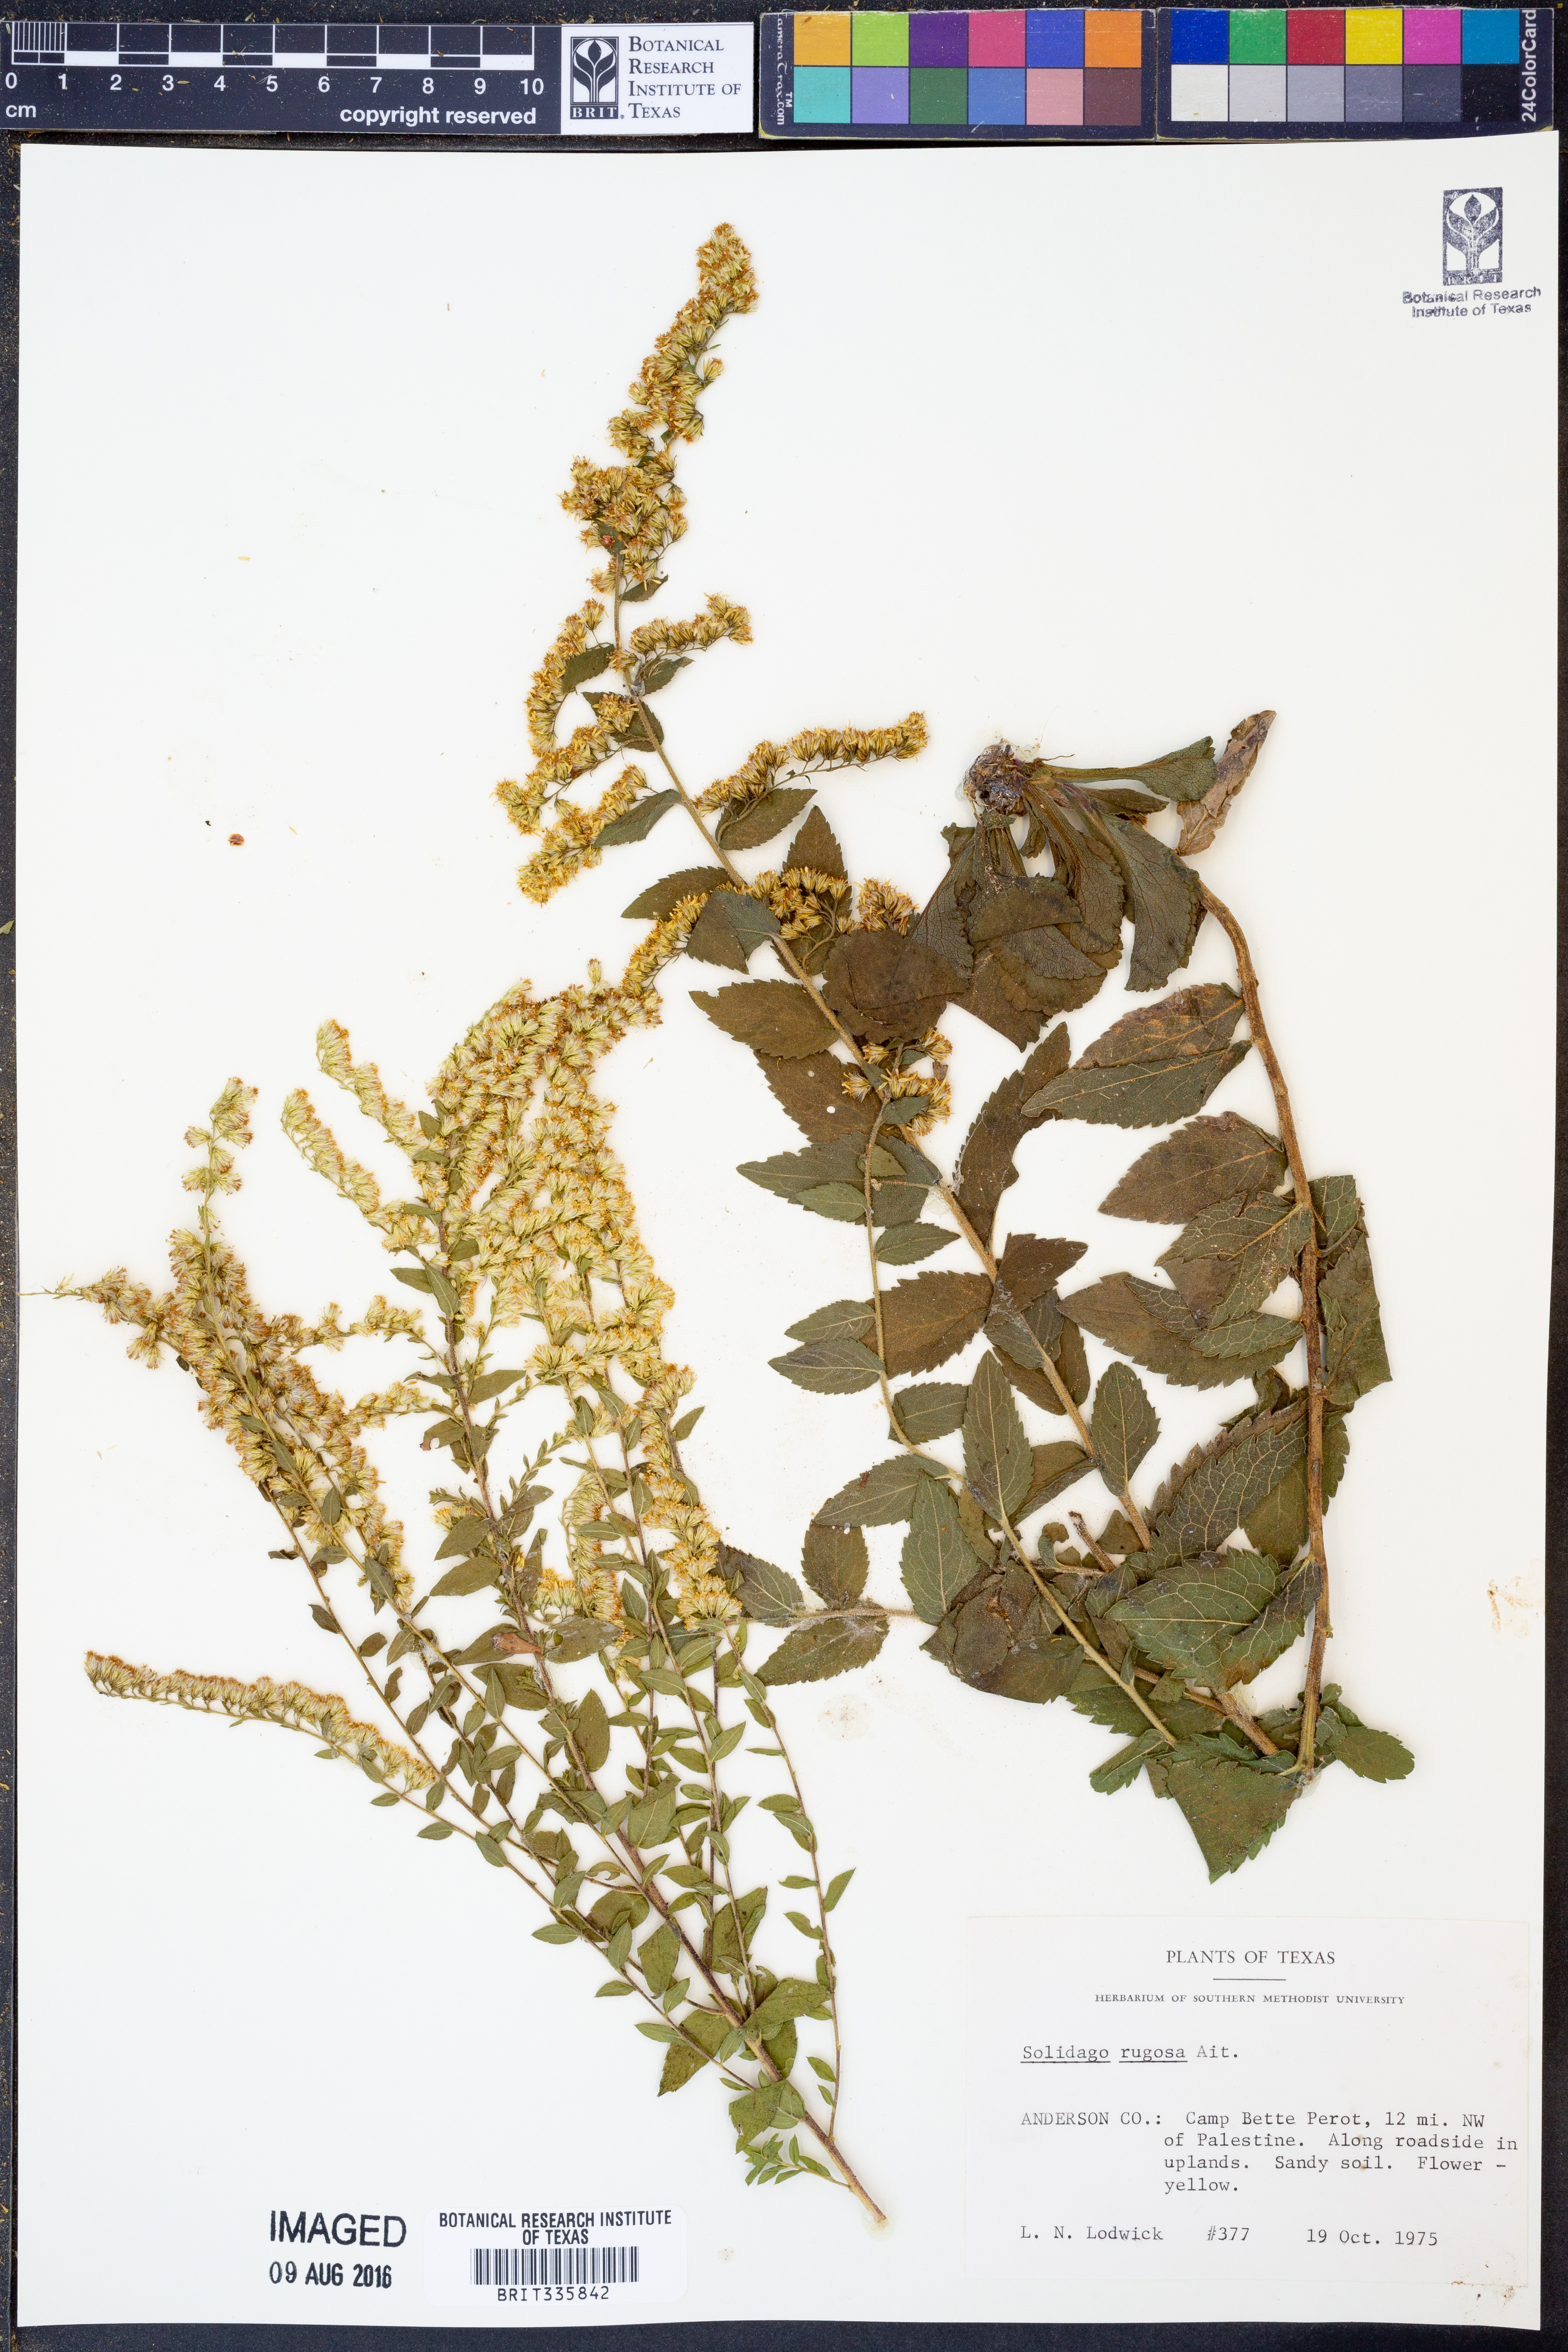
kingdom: Plantae
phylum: Tracheophyta
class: Magnoliopsida
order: Asterales
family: Asteraceae
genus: Solidago
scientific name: Solidago rugosa
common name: Rough-stemmed goldenrod
